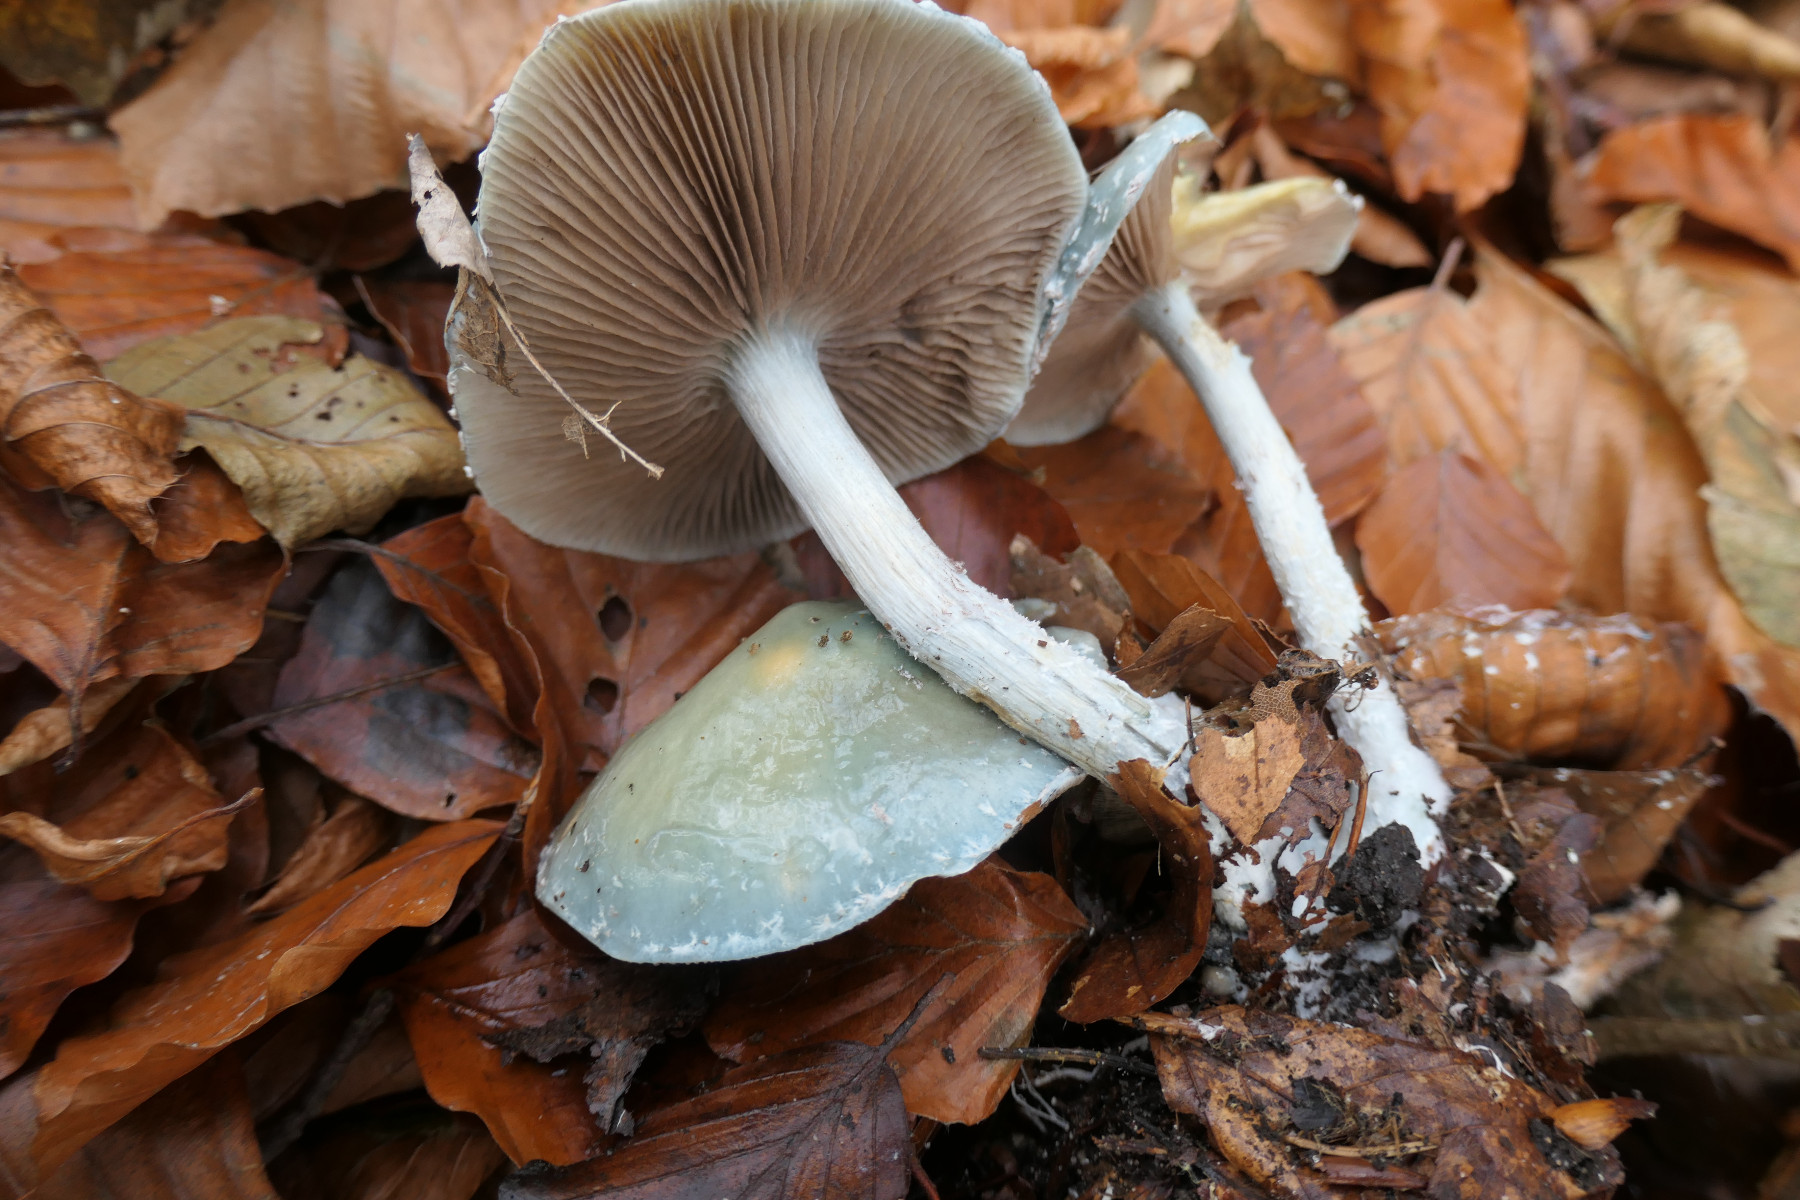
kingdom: Fungi
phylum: Basidiomycota
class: Agaricomycetes
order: Agaricales
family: Strophariaceae
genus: Stropharia
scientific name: Stropharia cyanea
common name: blågrøn bredblad
